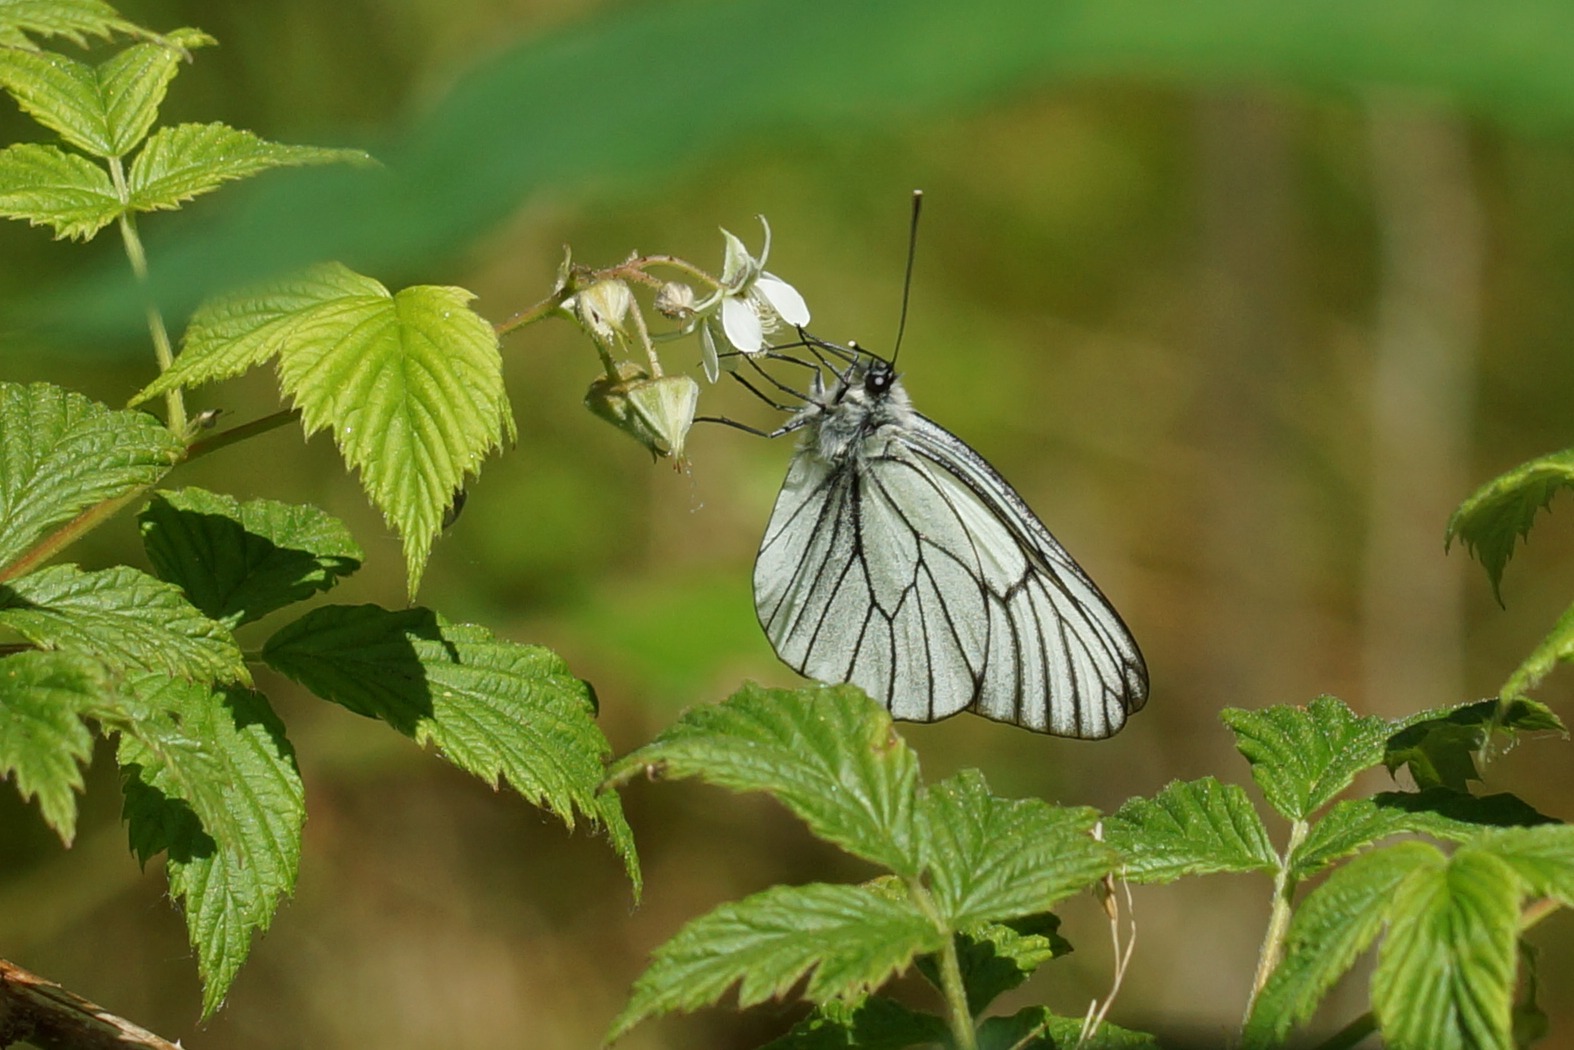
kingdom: Animalia
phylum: Arthropoda
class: Insecta
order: Lepidoptera
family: Pieridae
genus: Aporia
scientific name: Aporia crataegi
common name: Sortåret hvidvinge
